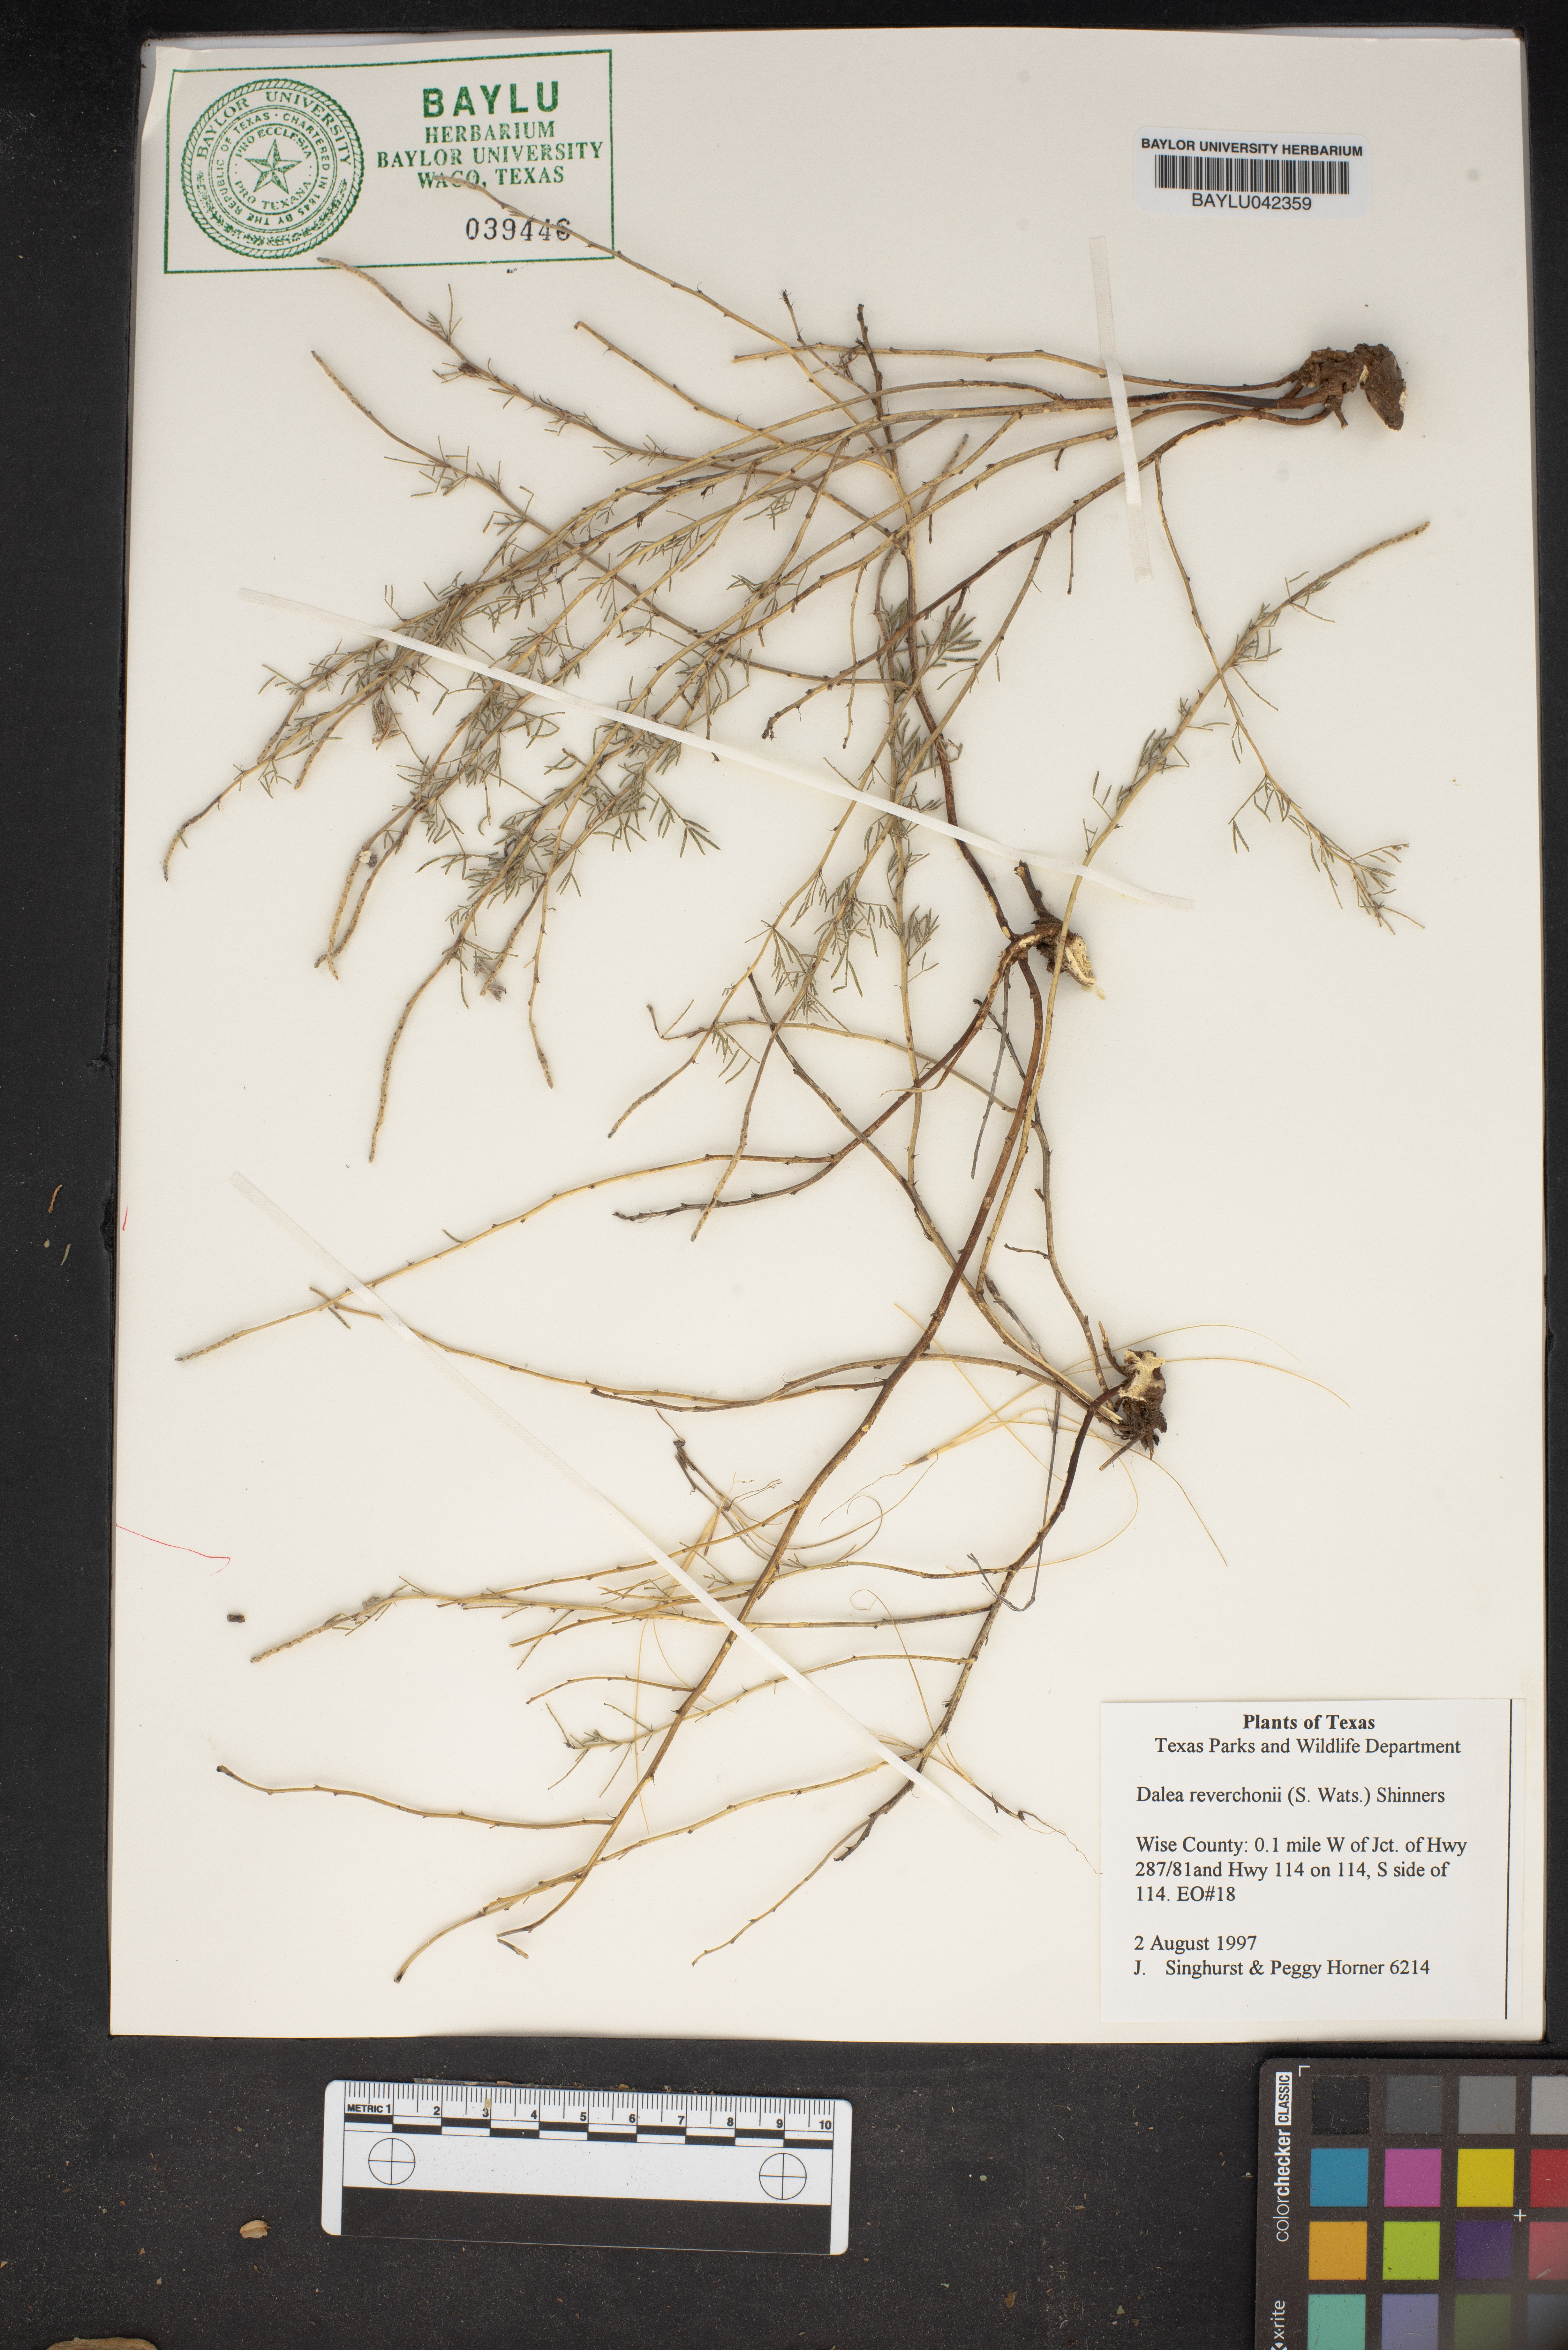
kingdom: Plantae
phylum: Tracheophyta
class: Magnoliopsida
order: Fabales
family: Fabaceae
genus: Dalea
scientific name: Dalea reverchonii
